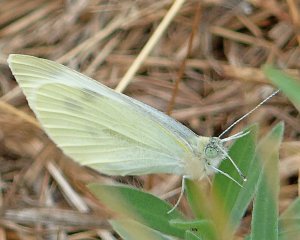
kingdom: Animalia
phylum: Arthropoda
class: Insecta
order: Lepidoptera
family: Pieridae
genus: Pieris
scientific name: Pieris rapae
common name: Cabbage White
